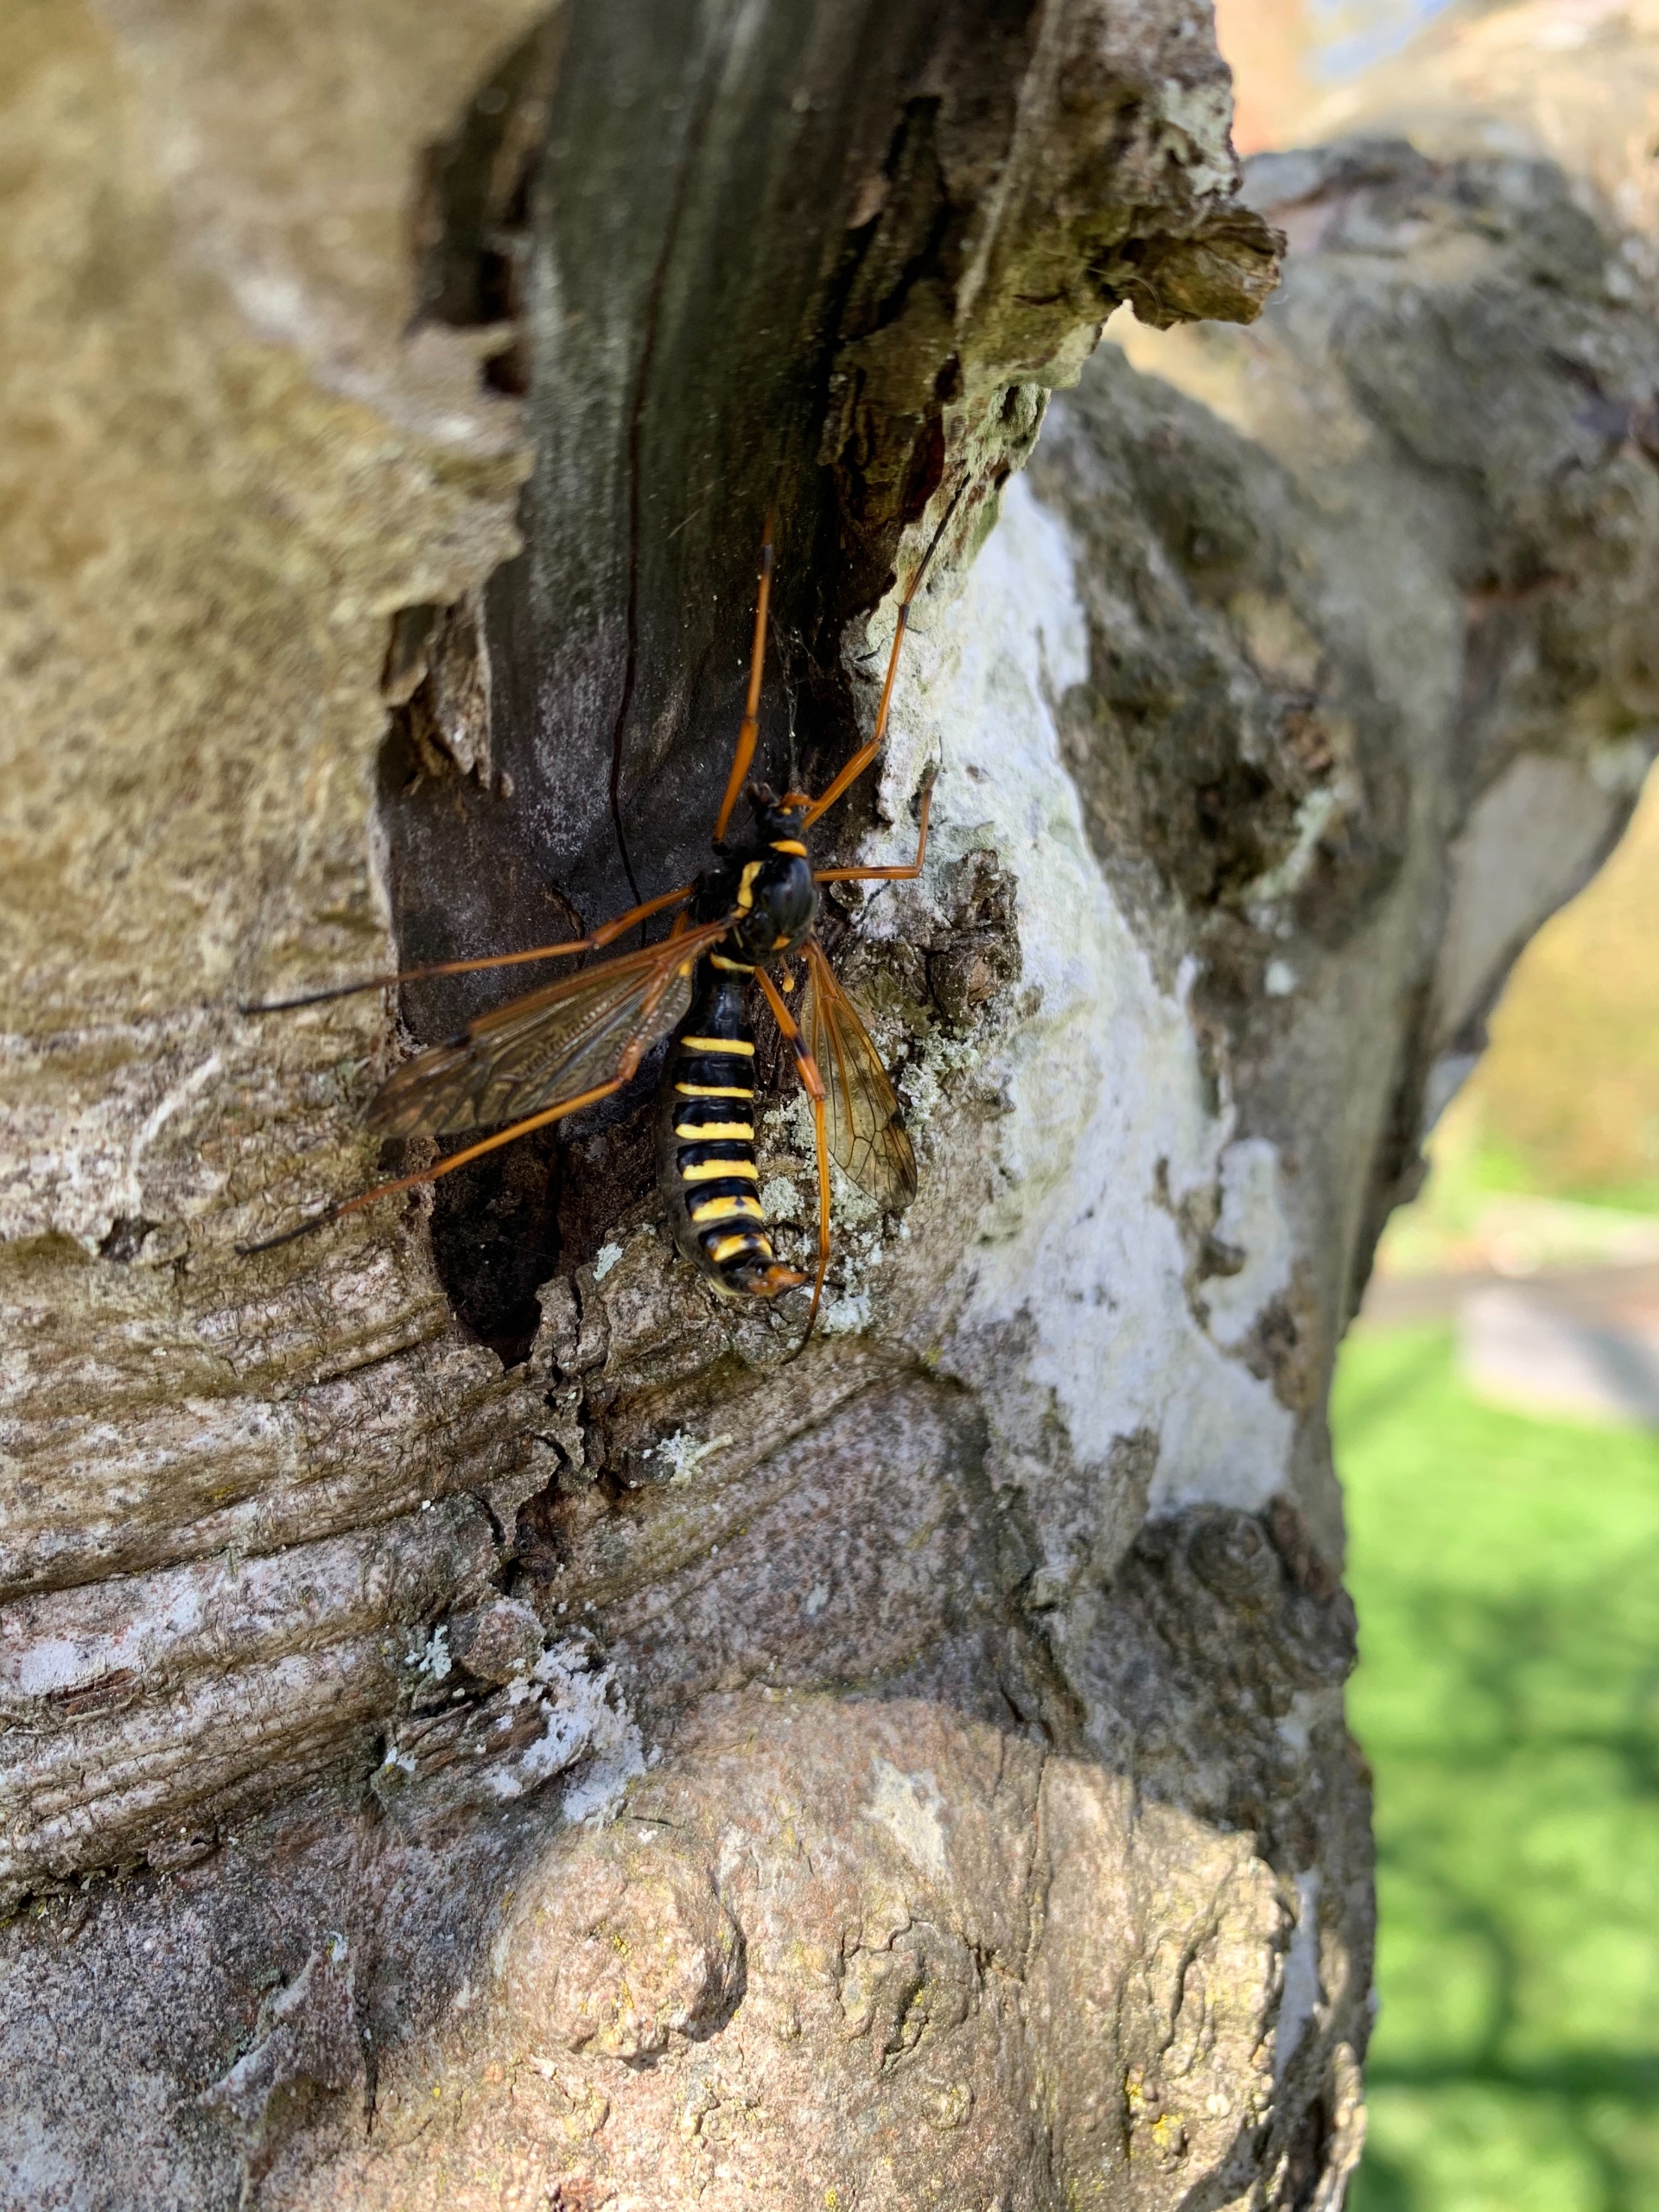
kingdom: Animalia
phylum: Arthropoda
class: Insecta
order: Diptera
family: Tipulidae
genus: Ctenophora
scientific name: Ctenophora flaveolata
